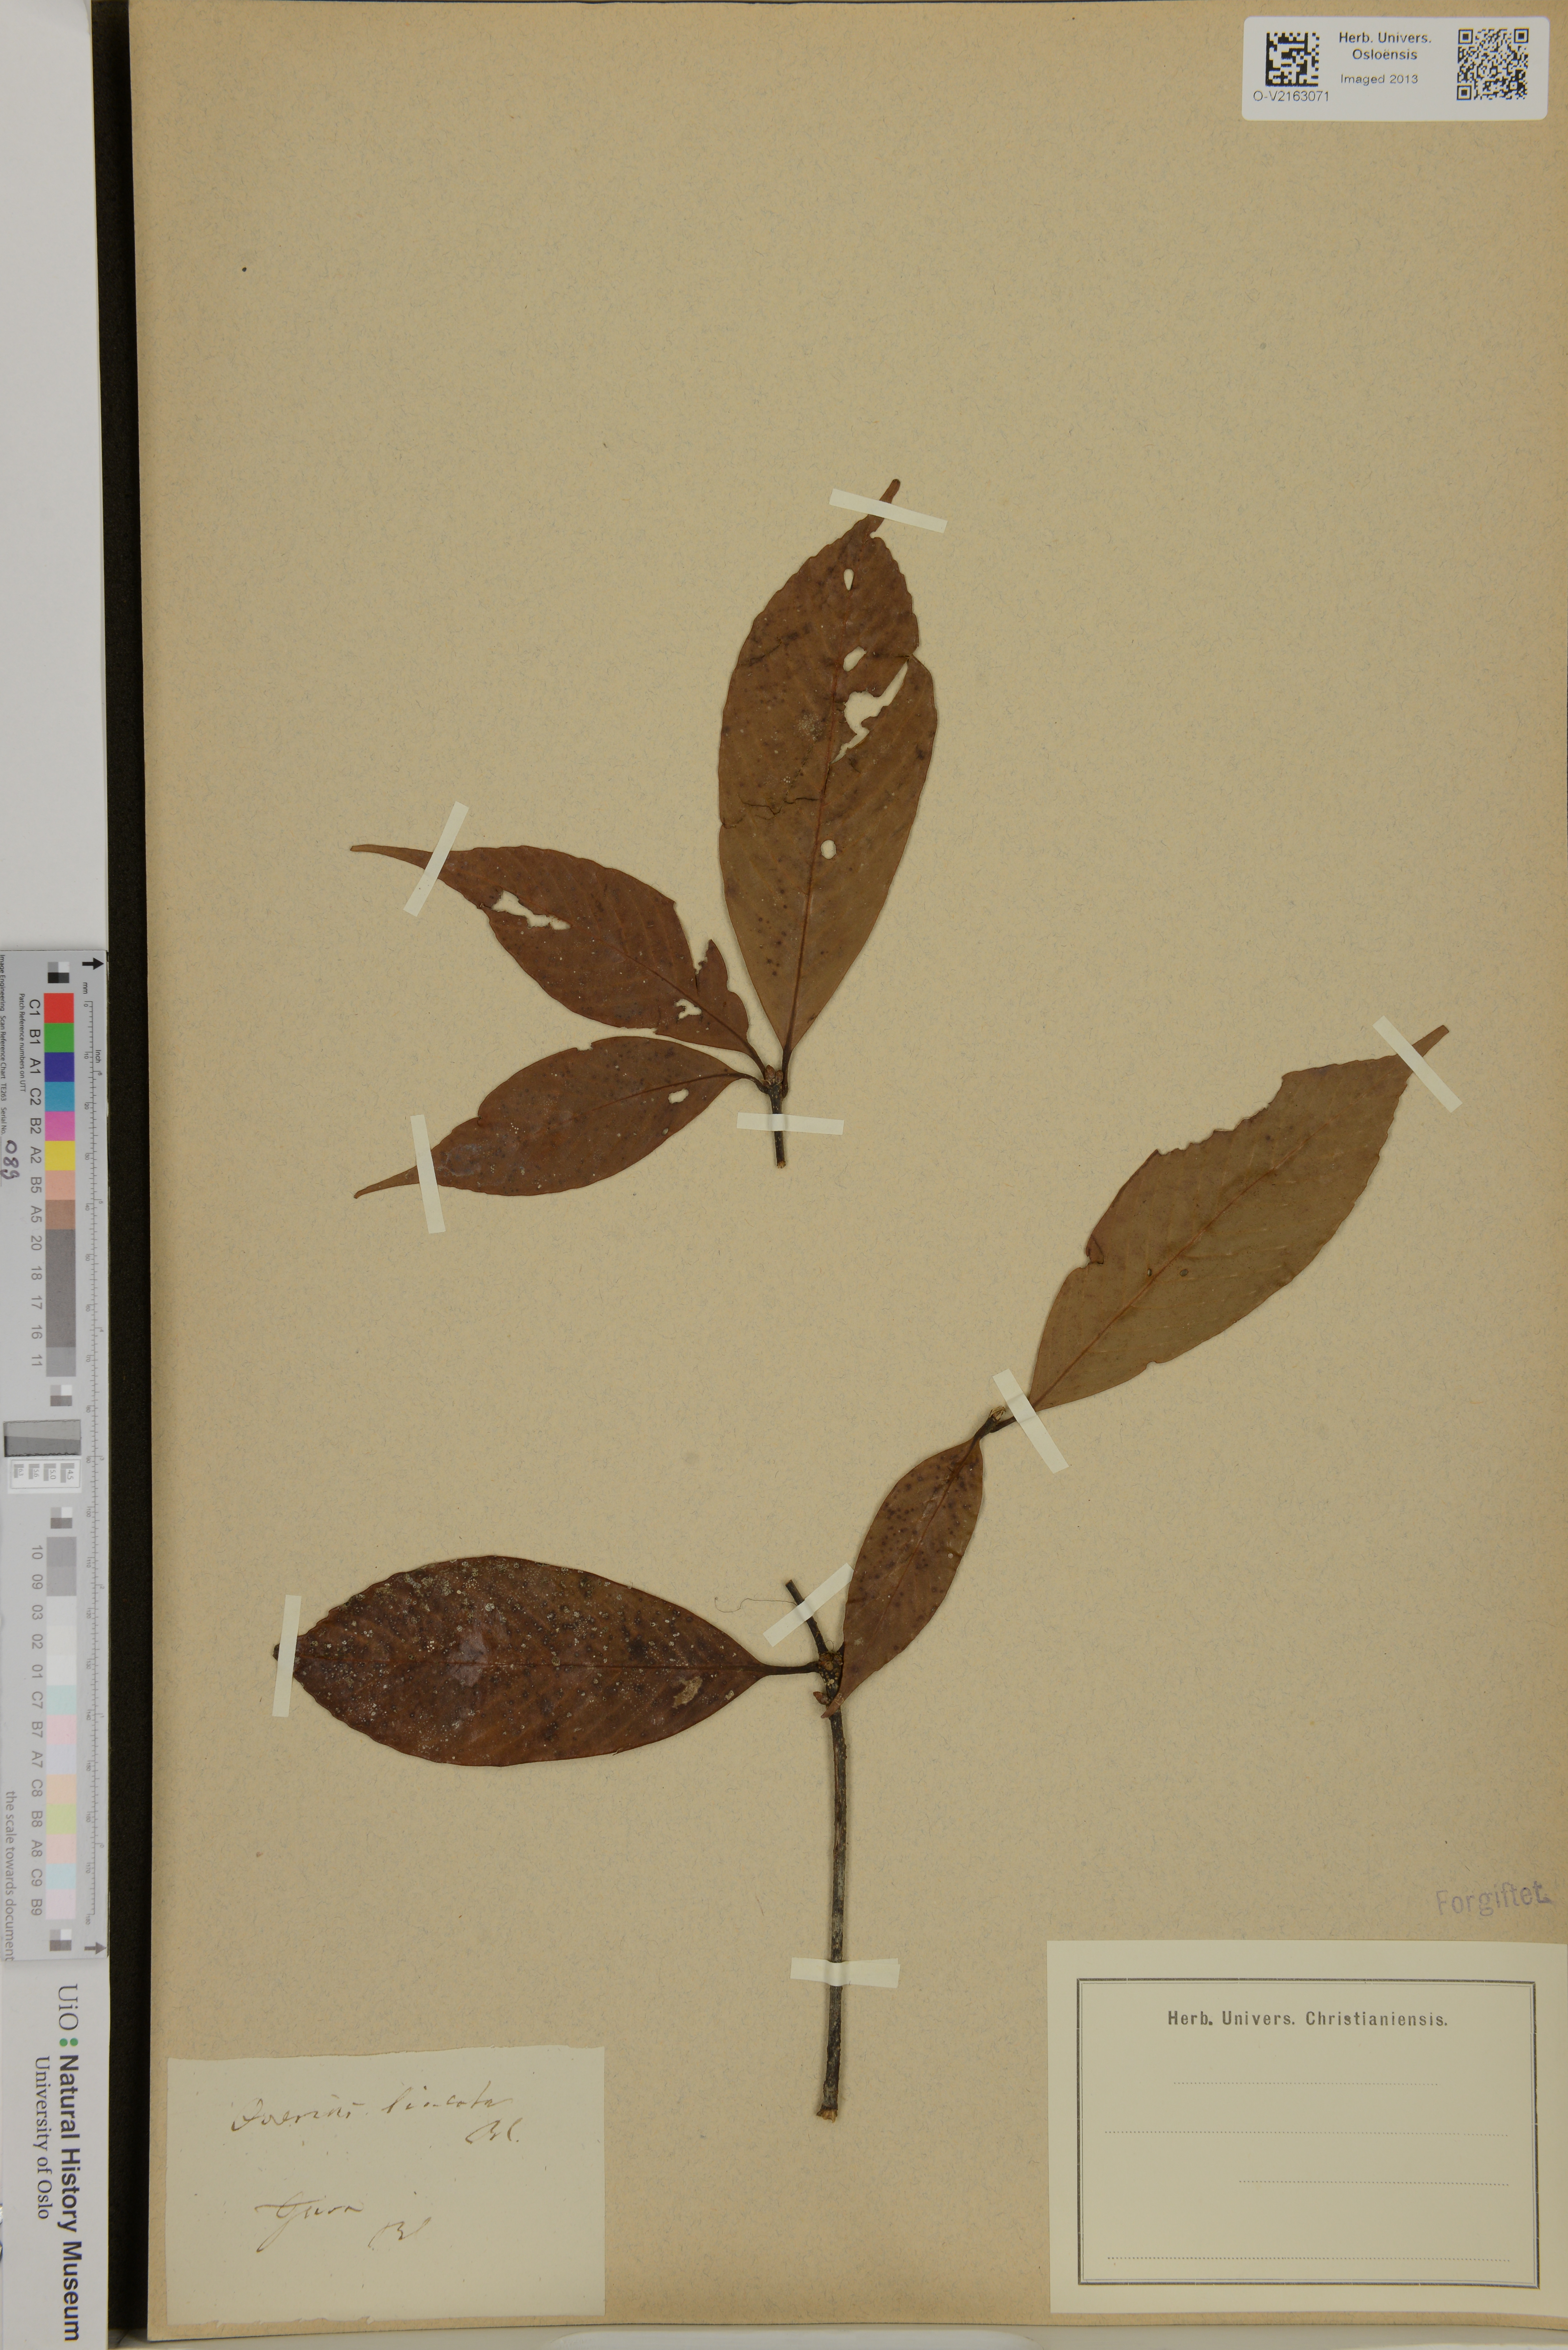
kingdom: Plantae
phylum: Tracheophyta
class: Magnoliopsida
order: Fagales
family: Fagaceae
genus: Quercus
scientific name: Quercus lineata
